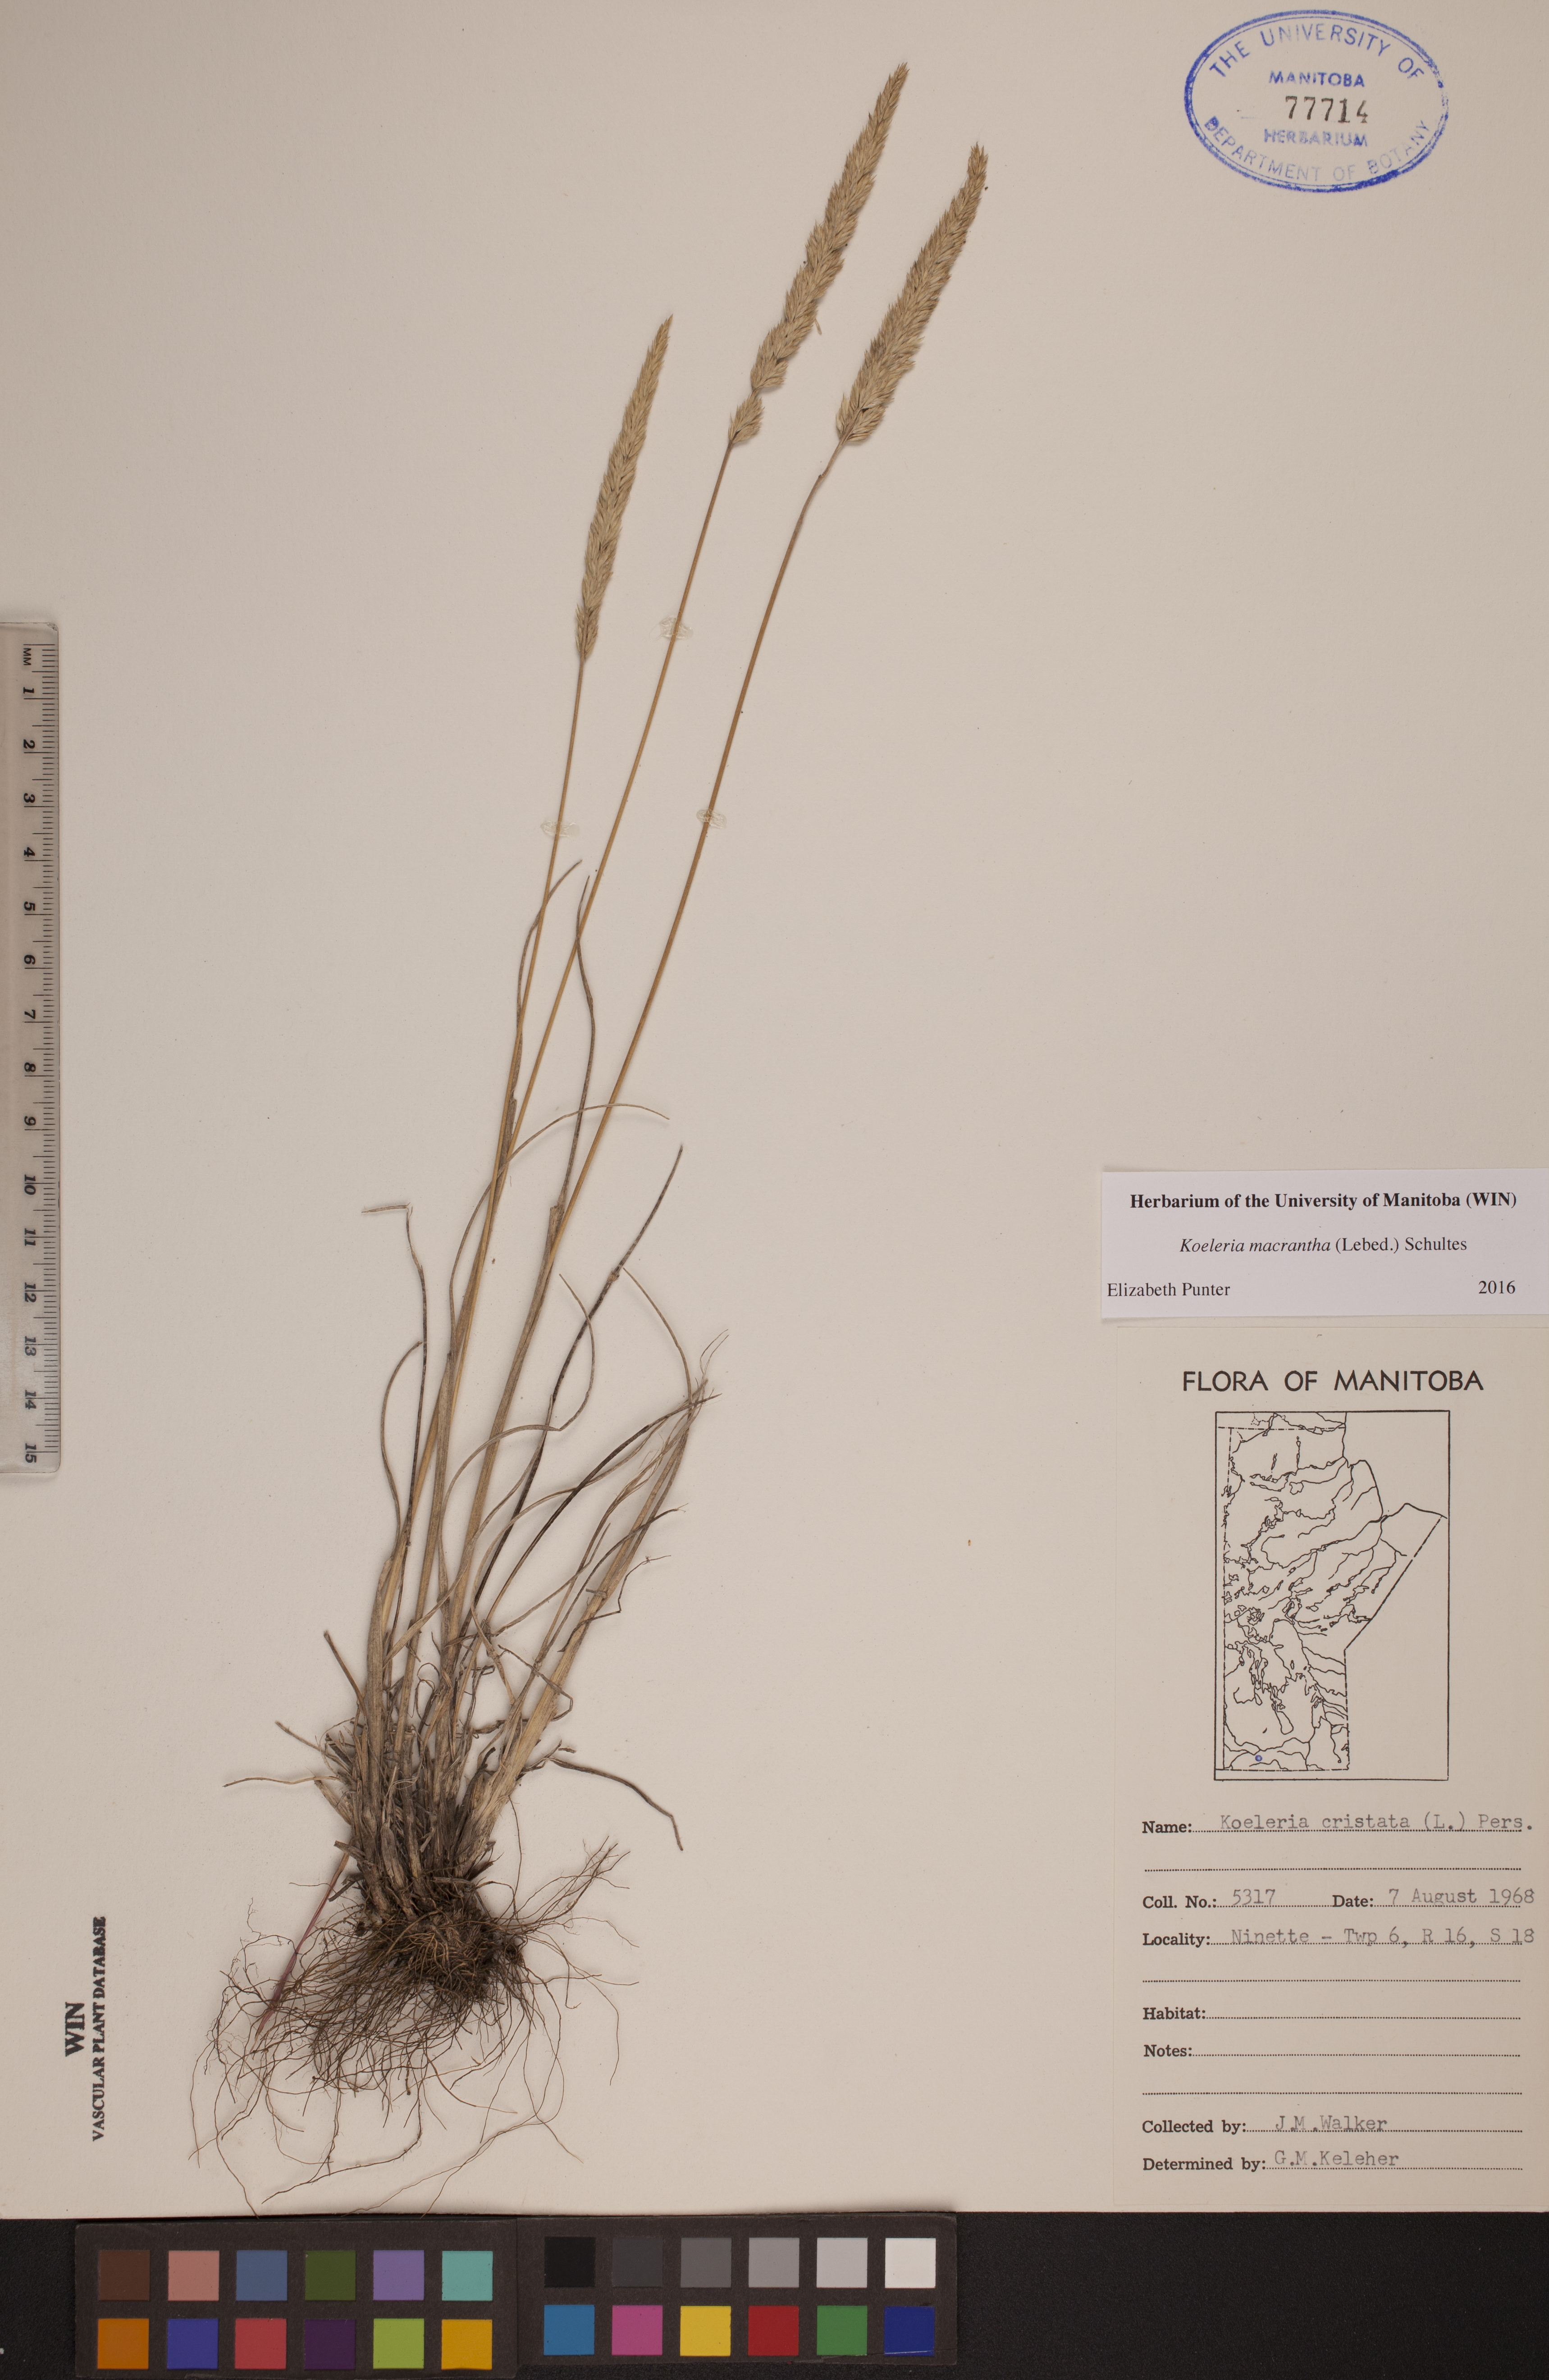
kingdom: Plantae
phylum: Tracheophyta
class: Liliopsida
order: Poales
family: Poaceae
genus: Koeleria
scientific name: Koeleria macrantha
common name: Crested hair-grass
